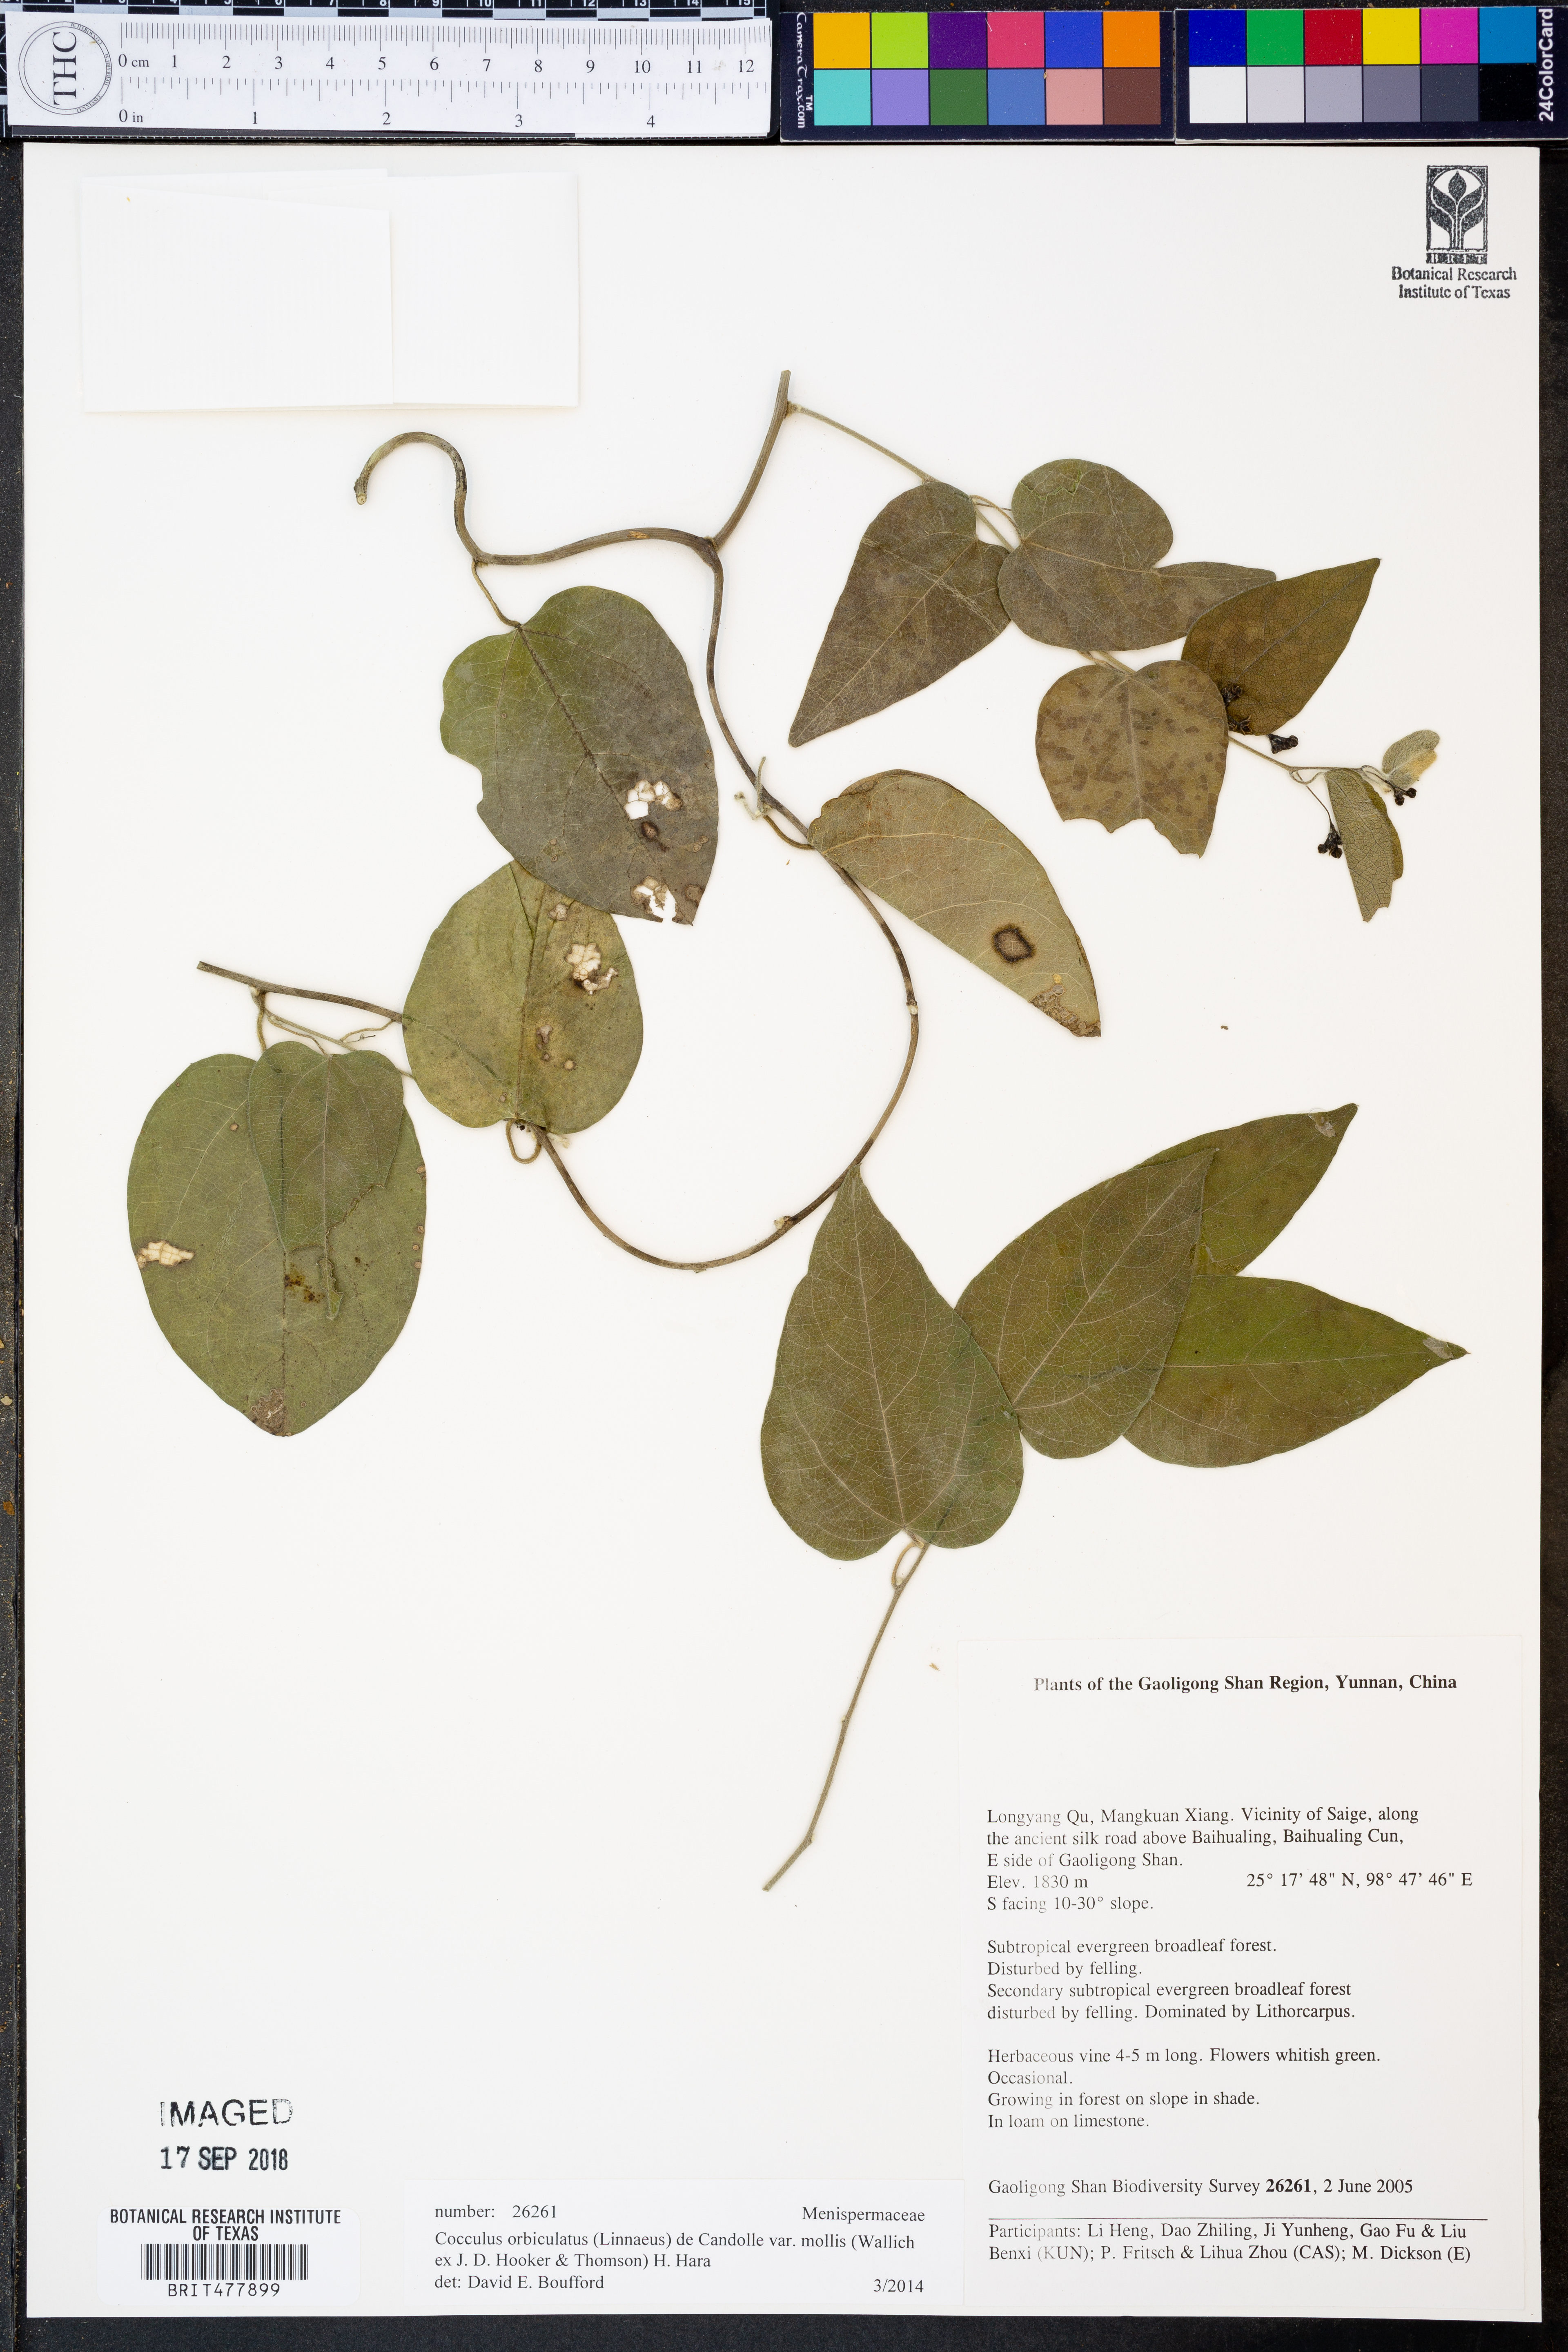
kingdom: Plantae
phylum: Tracheophyta
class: Magnoliopsida
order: Ranunculales
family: Menispermaceae
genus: Cocculus
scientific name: Cocculus orbiculatus
